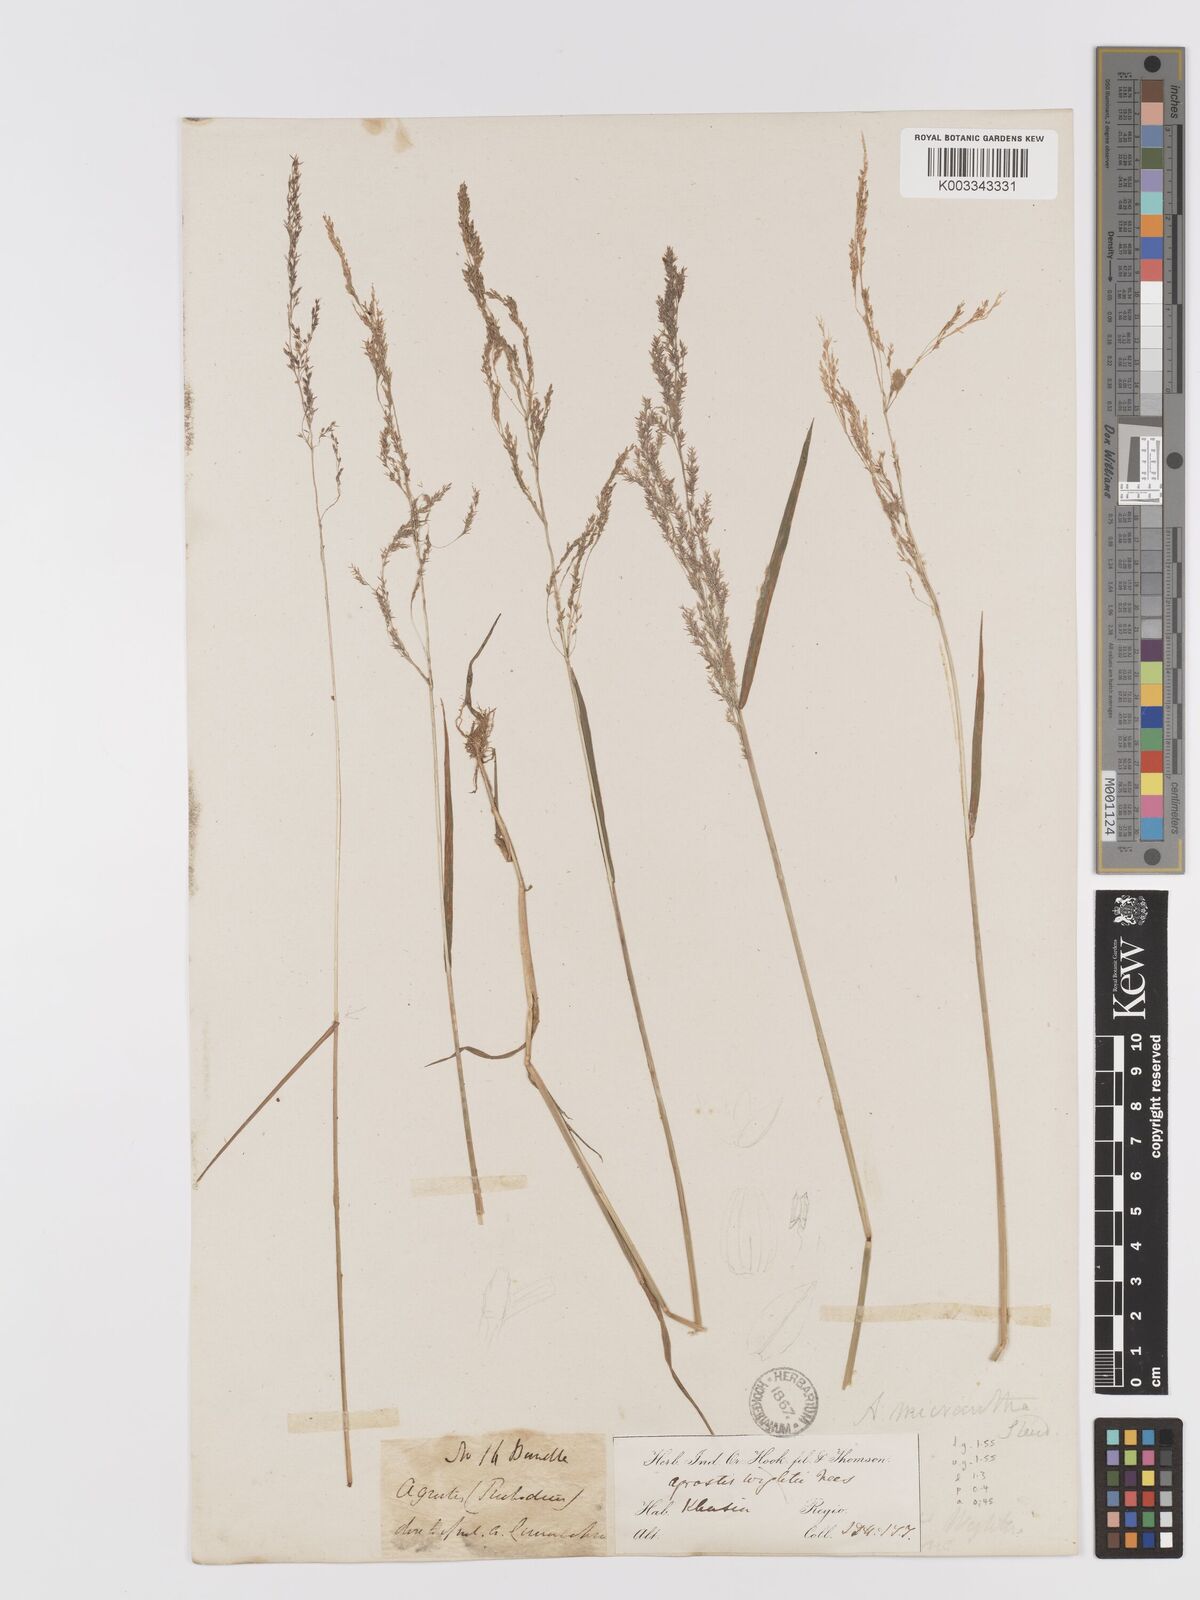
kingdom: Plantae
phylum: Tracheophyta
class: Liliopsida
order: Poales
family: Poaceae
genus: Agrostis
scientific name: Agrostis micrantha
